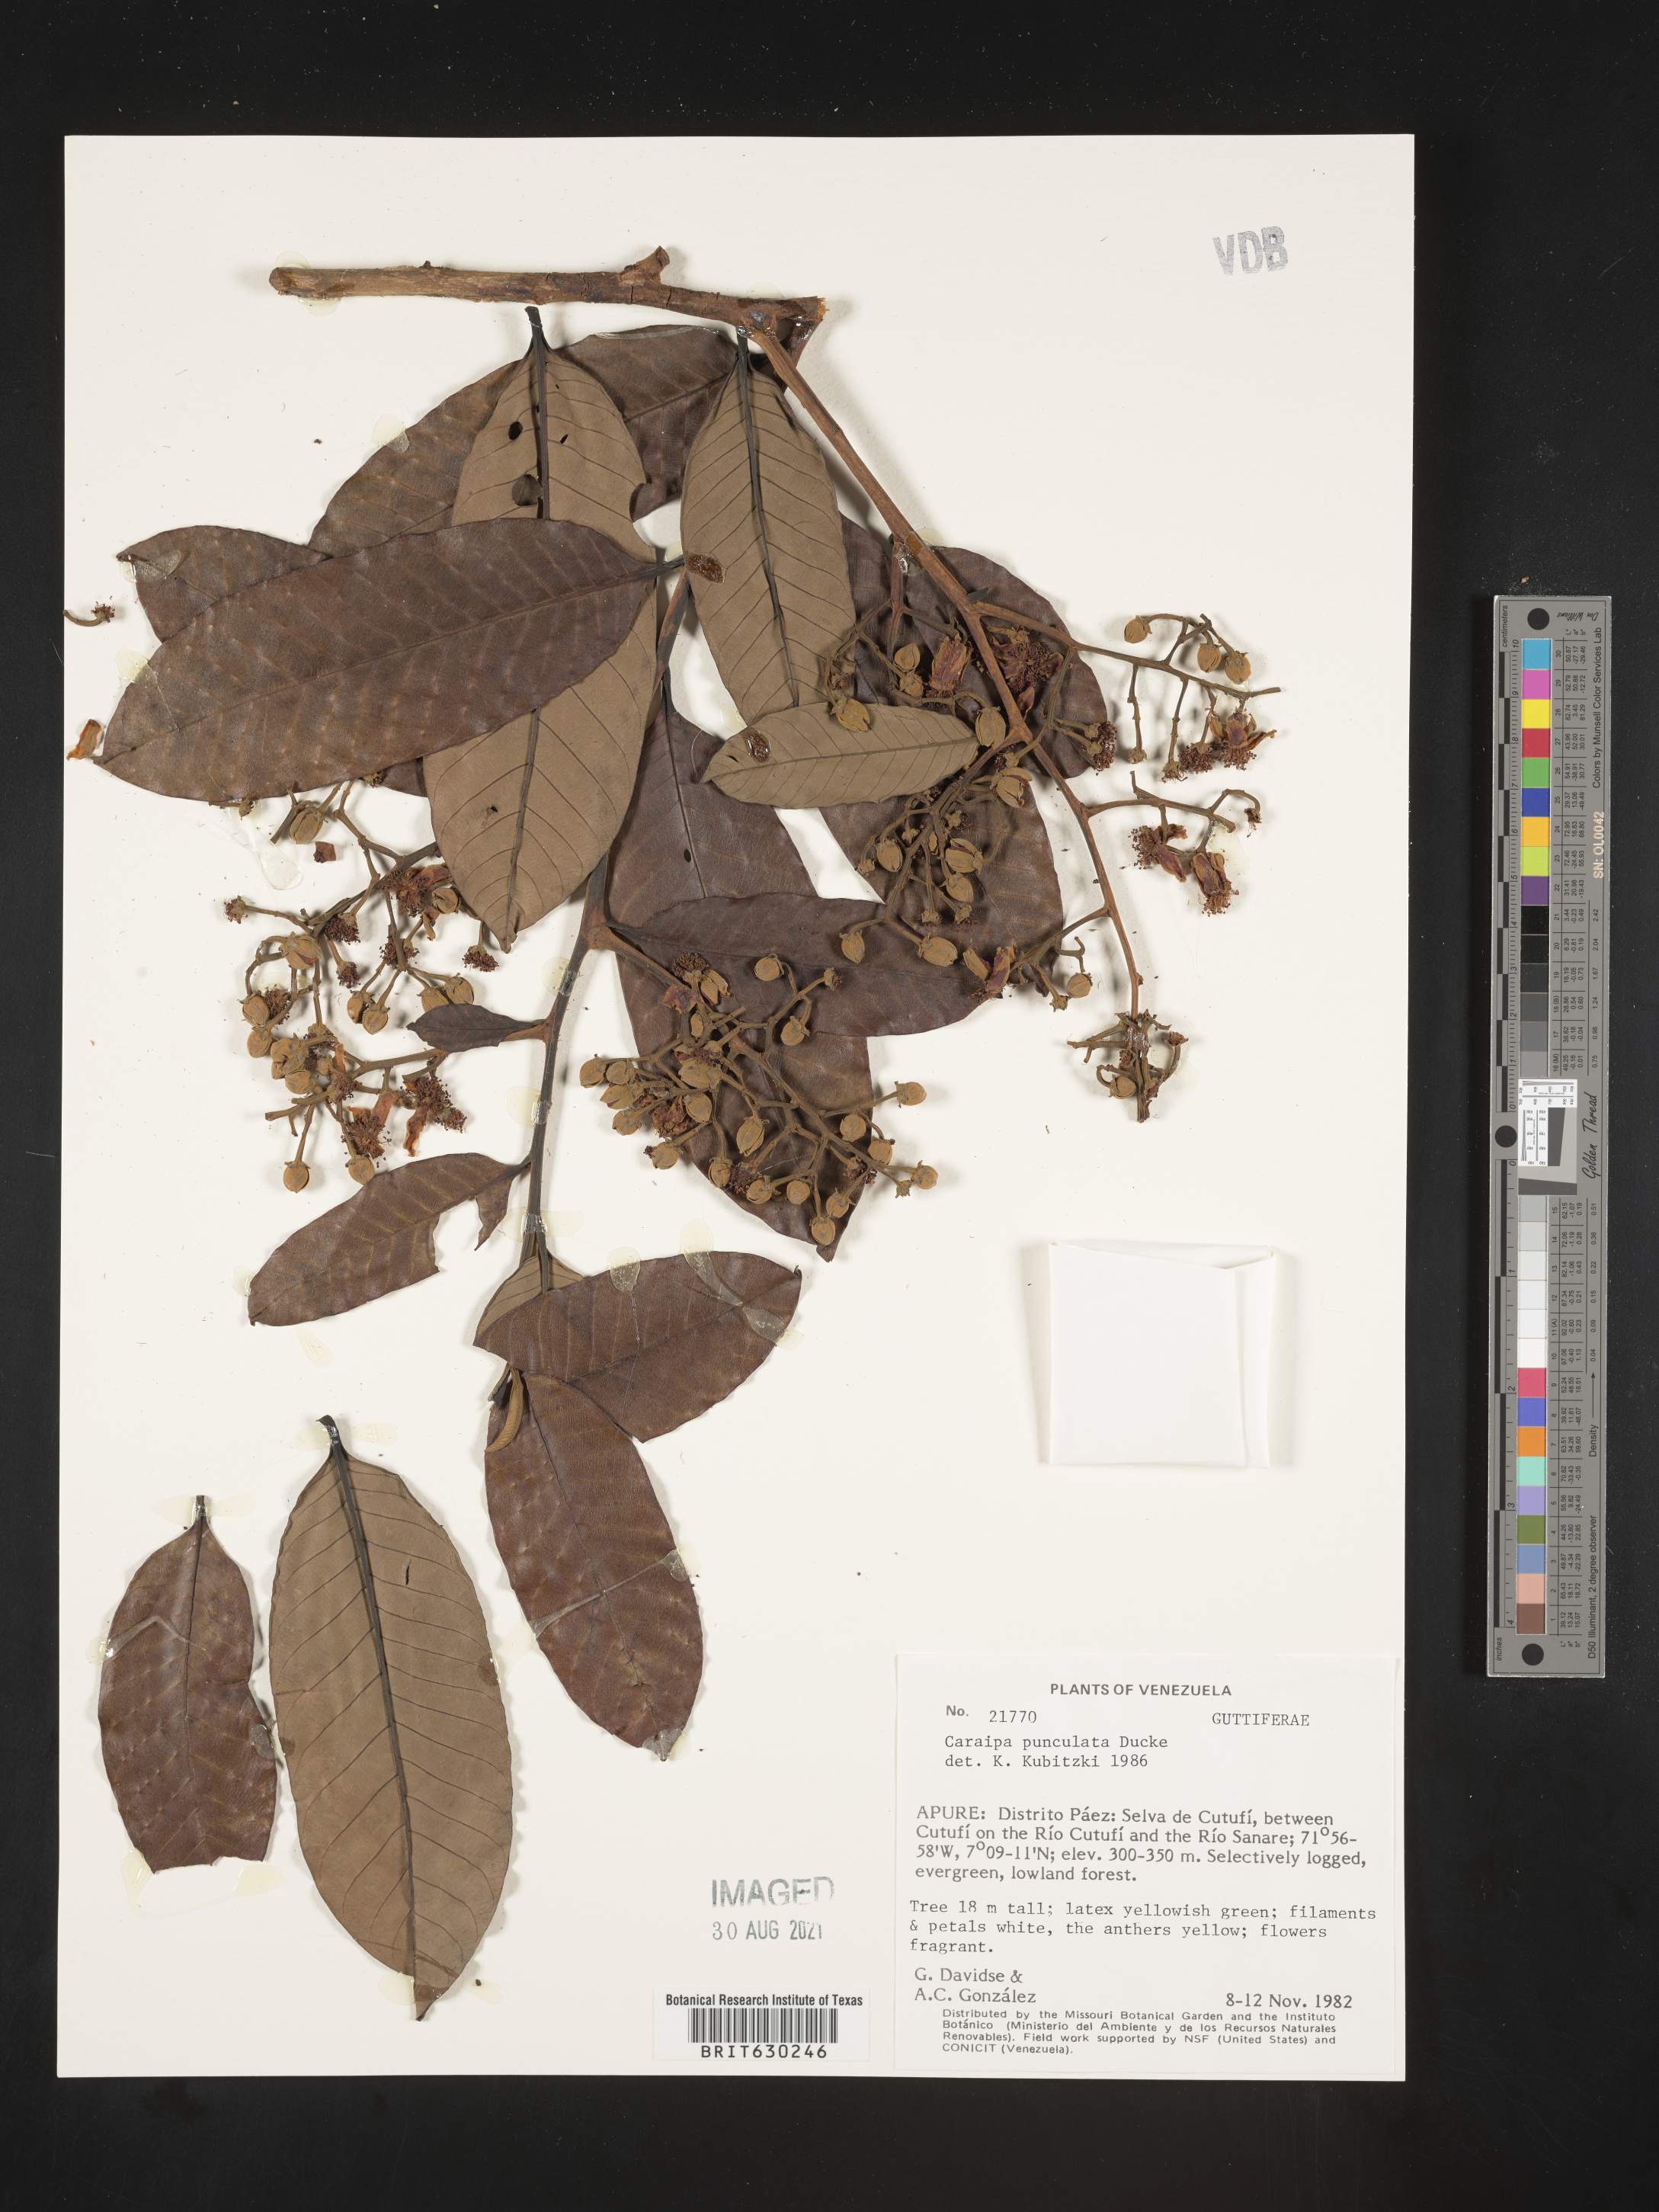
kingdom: Plantae
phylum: Tracheophyta
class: Magnoliopsida
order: Malpighiales
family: Calophyllaceae
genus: Caraipa
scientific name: Caraipa punctulata
